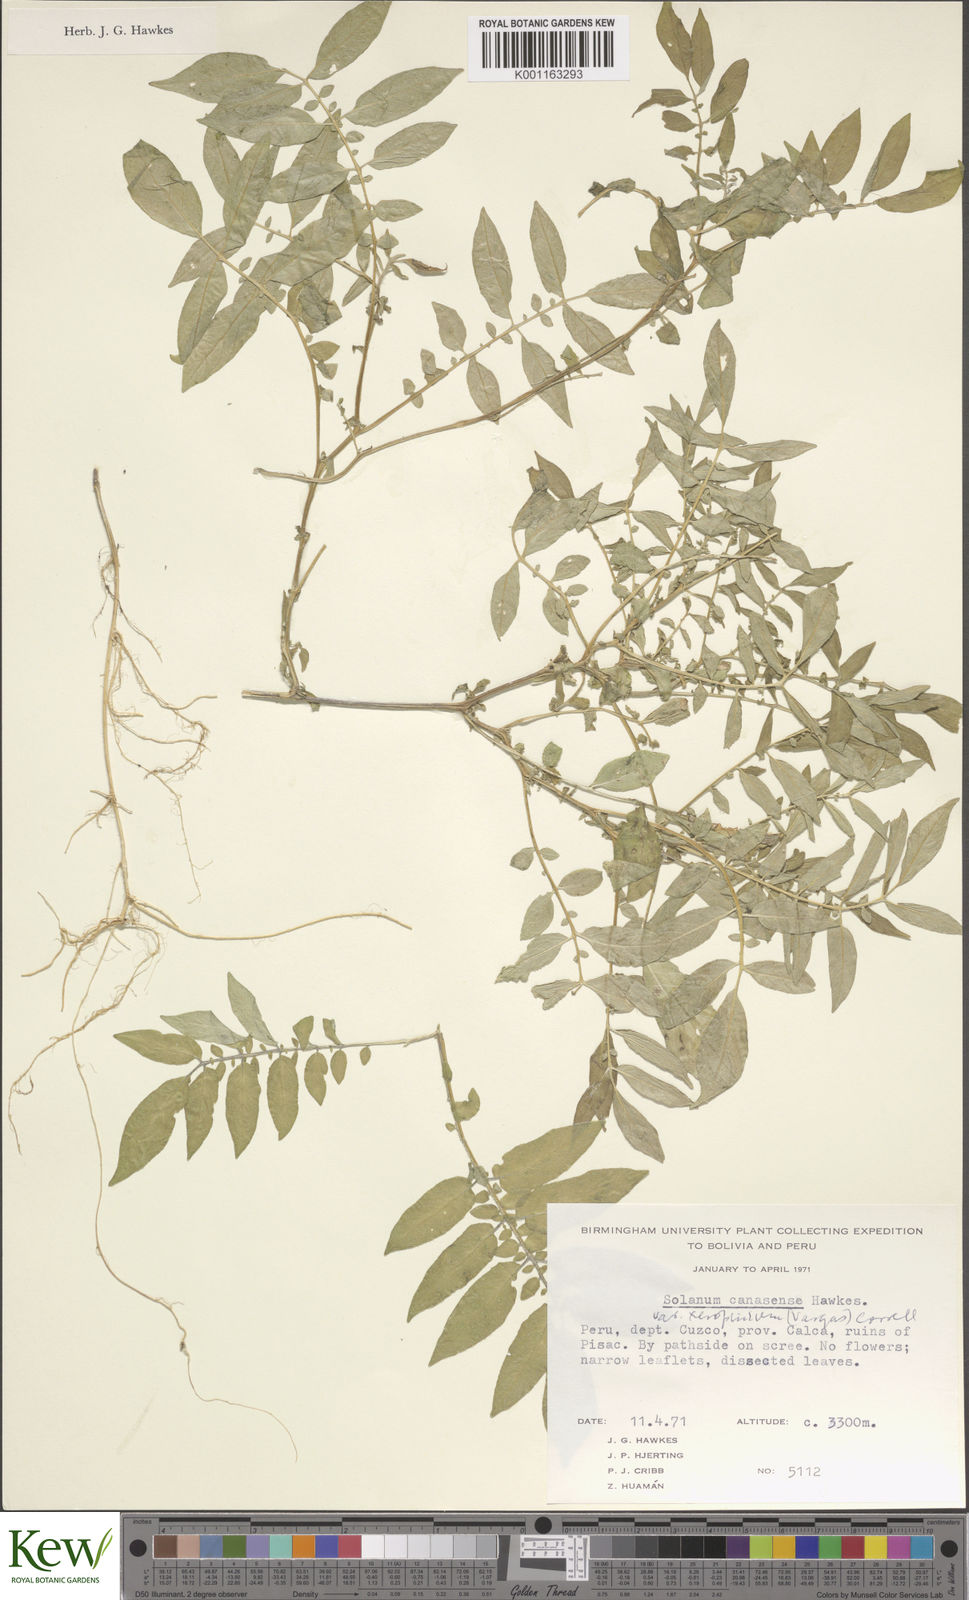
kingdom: Plantae
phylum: Tracheophyta
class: Magnoliopsida
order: Solanales
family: Solanaceae
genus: Solanum
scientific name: Solanum candolleanum
